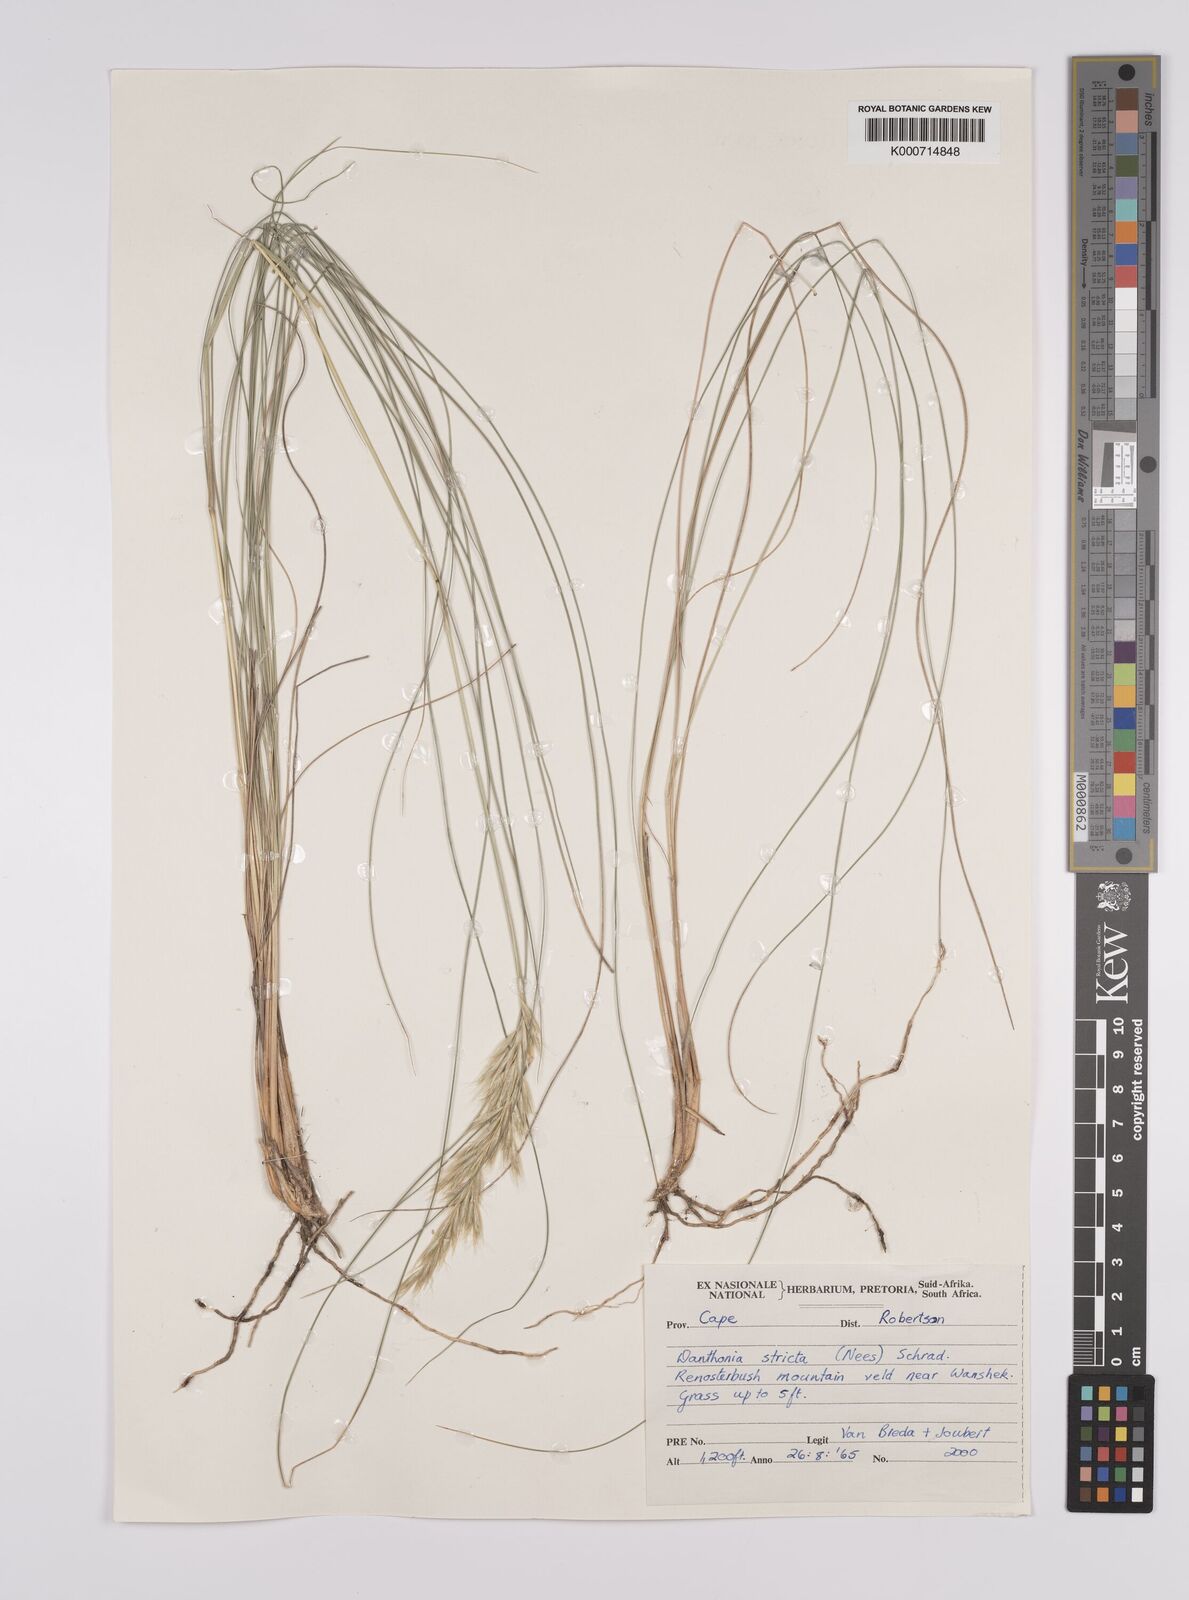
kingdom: Plantae
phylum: Tracheophyta
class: Liliopsida
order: Poales
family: Poaceae
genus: Rytidosperma
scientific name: Rytidosperma
